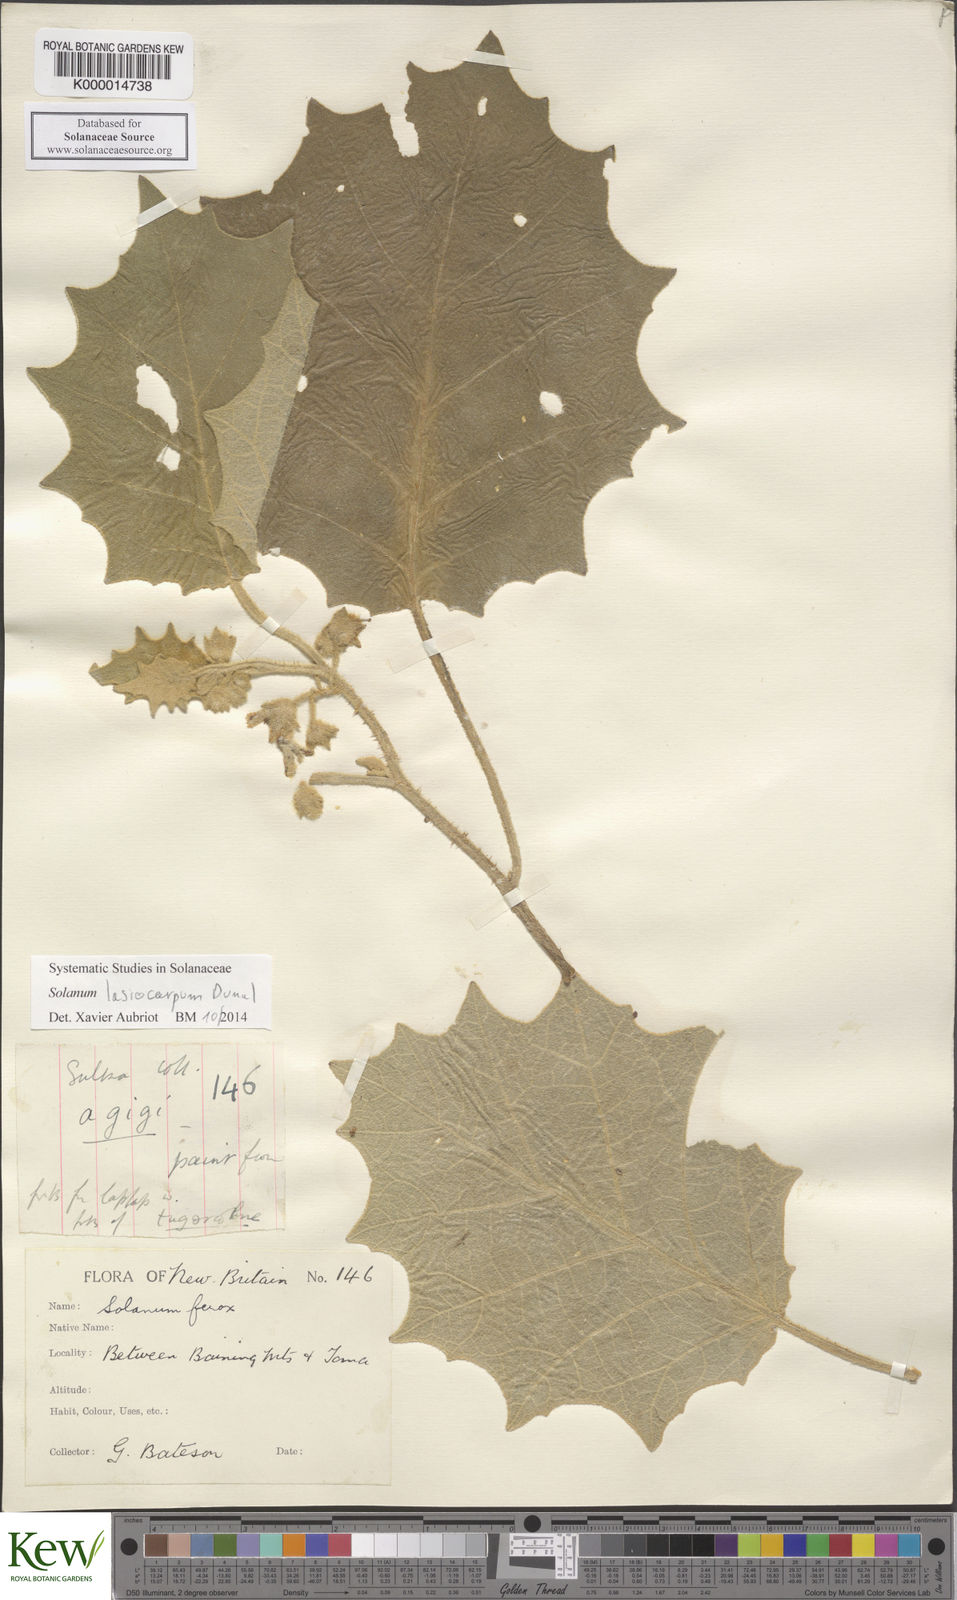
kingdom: Plantae
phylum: Tracheophyta
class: Magnoliopsida
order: Solanales
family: Solanaceae
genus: Solanum
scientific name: Solanum lasiocarpum
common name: Indian nightshade
